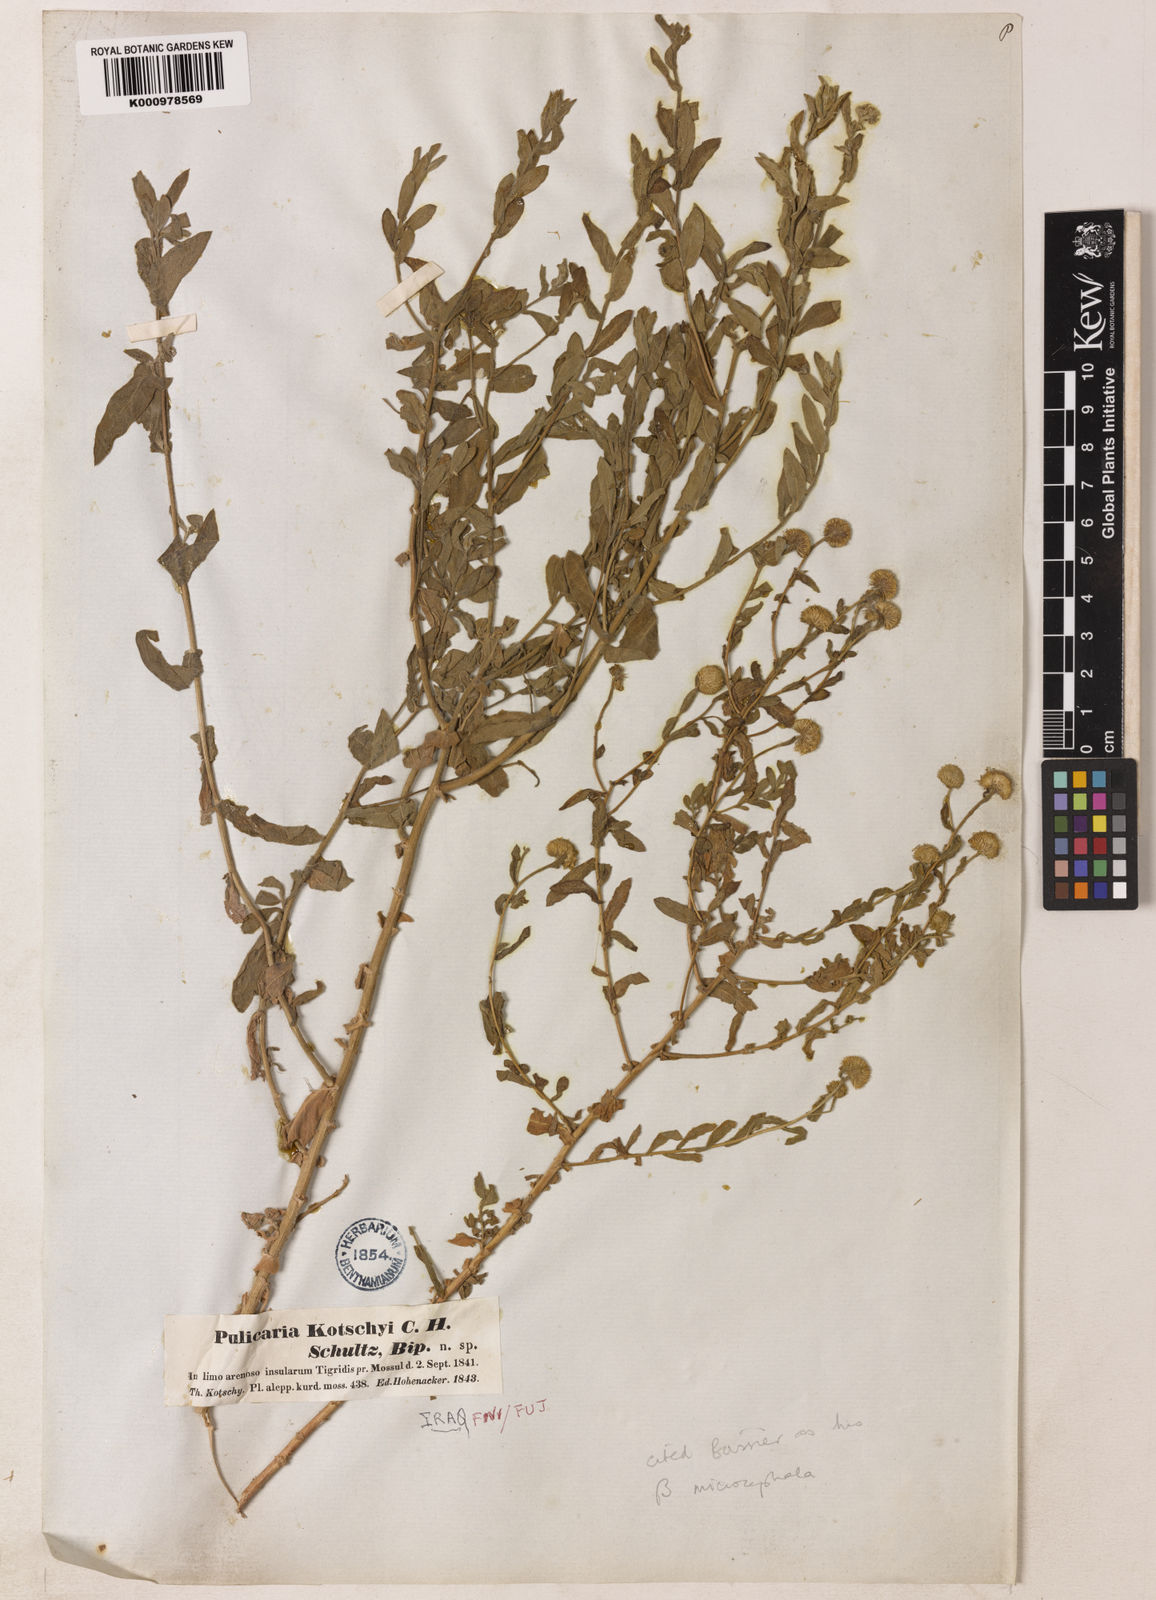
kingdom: Plantae
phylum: Tracheophyta
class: Magnoliopsida
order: Asterales
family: Asteraceae
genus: Pulicaria
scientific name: Pulicaria
